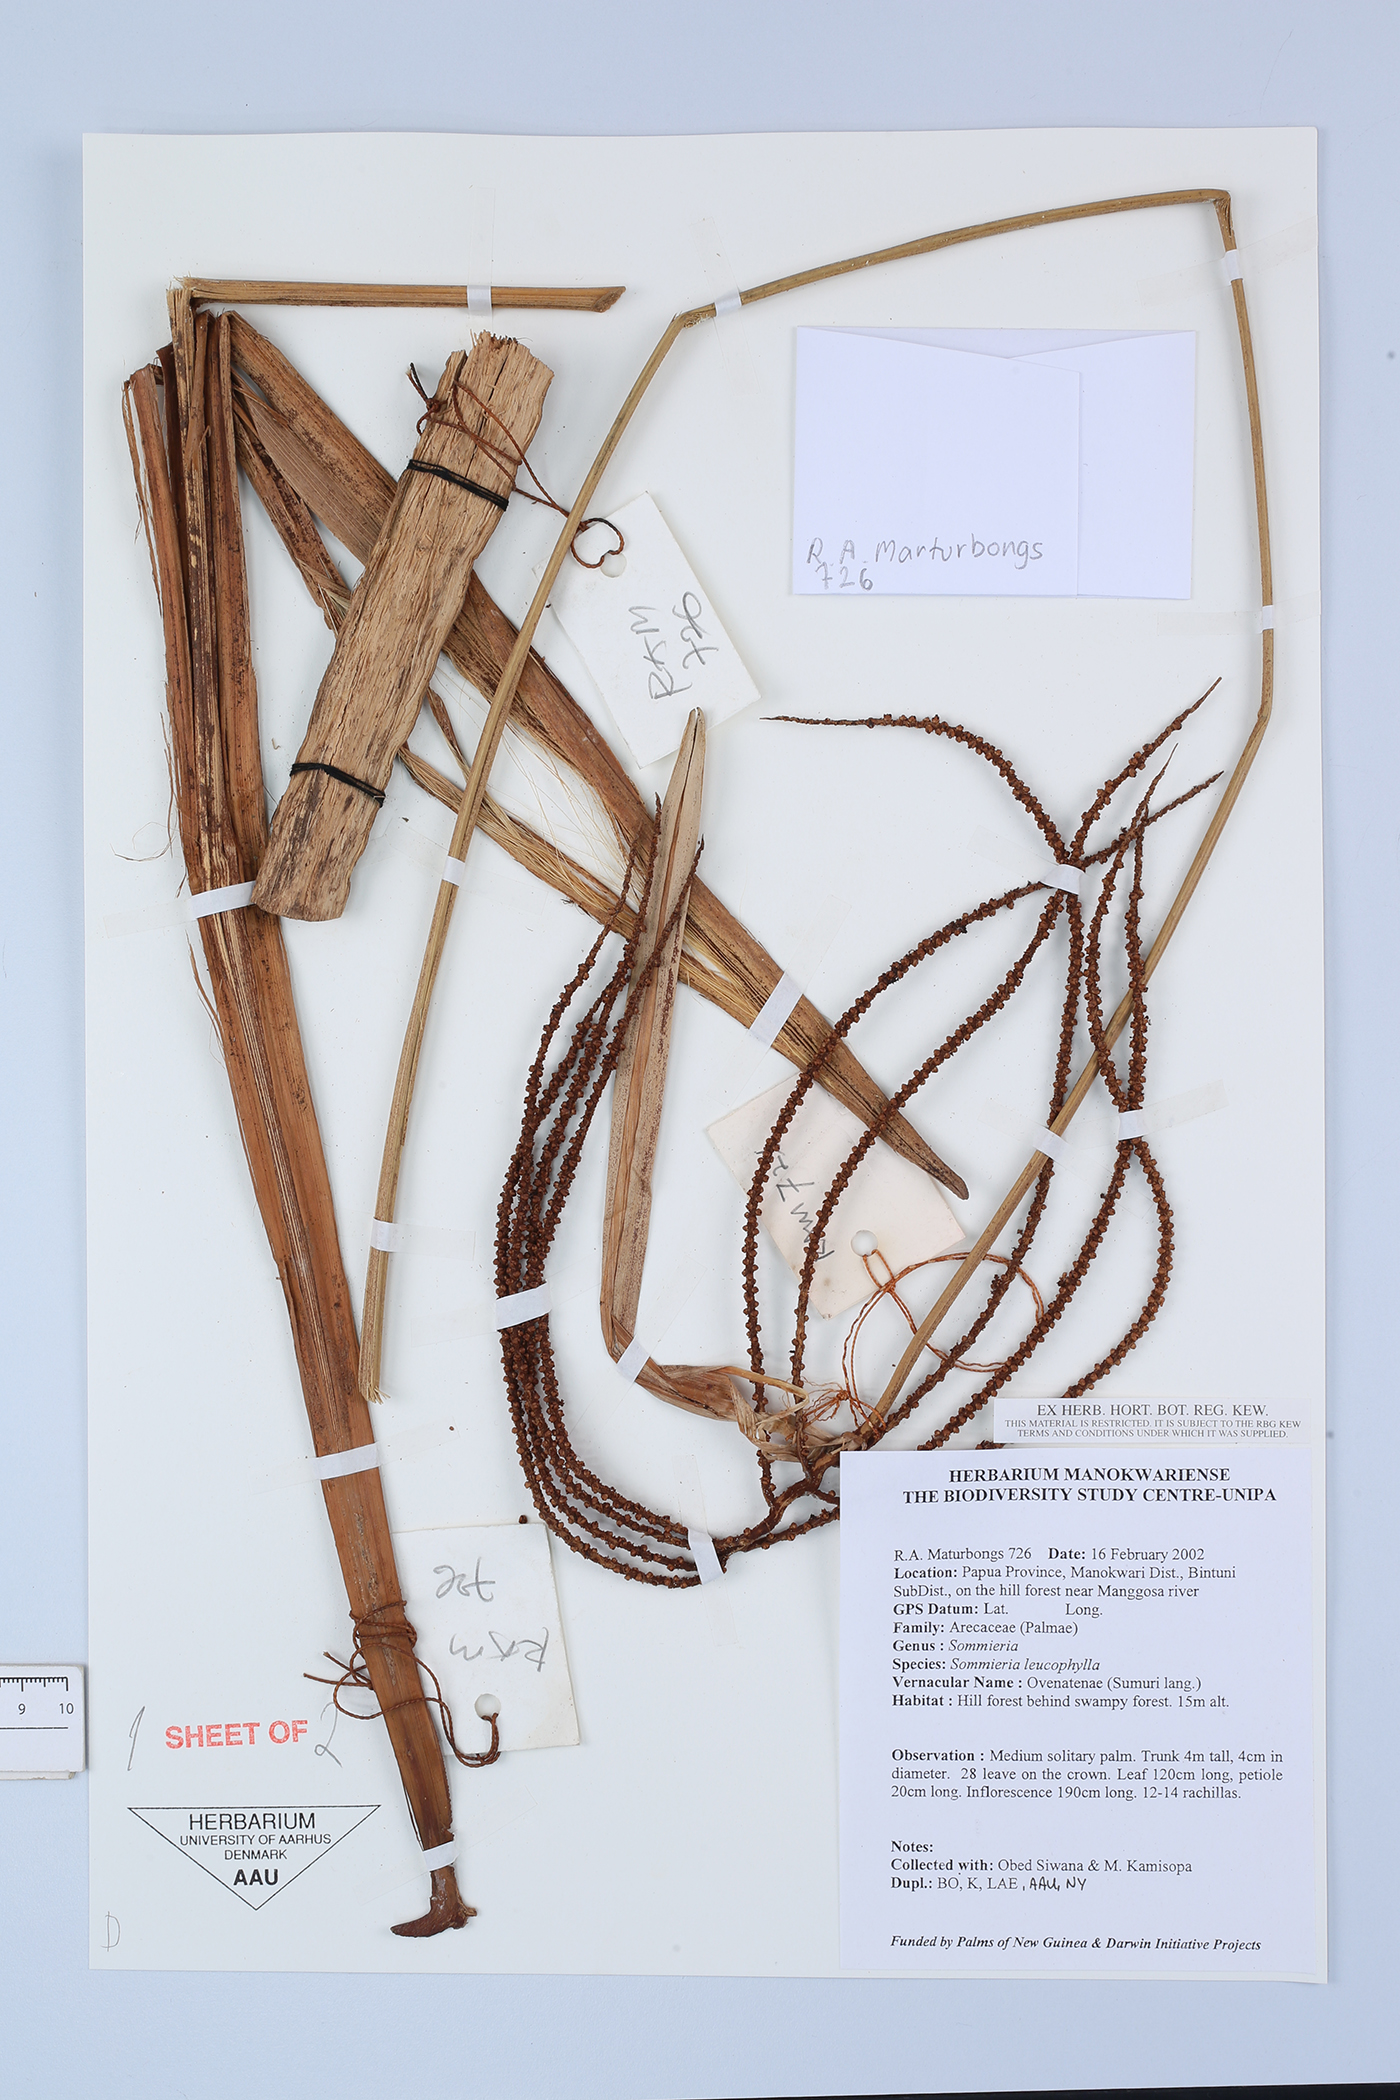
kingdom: Plantae
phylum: Tracheophyta
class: Liliopsida
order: Arecales
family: Arecaceae
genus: Sommieria
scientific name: Sommieria leucophylla
